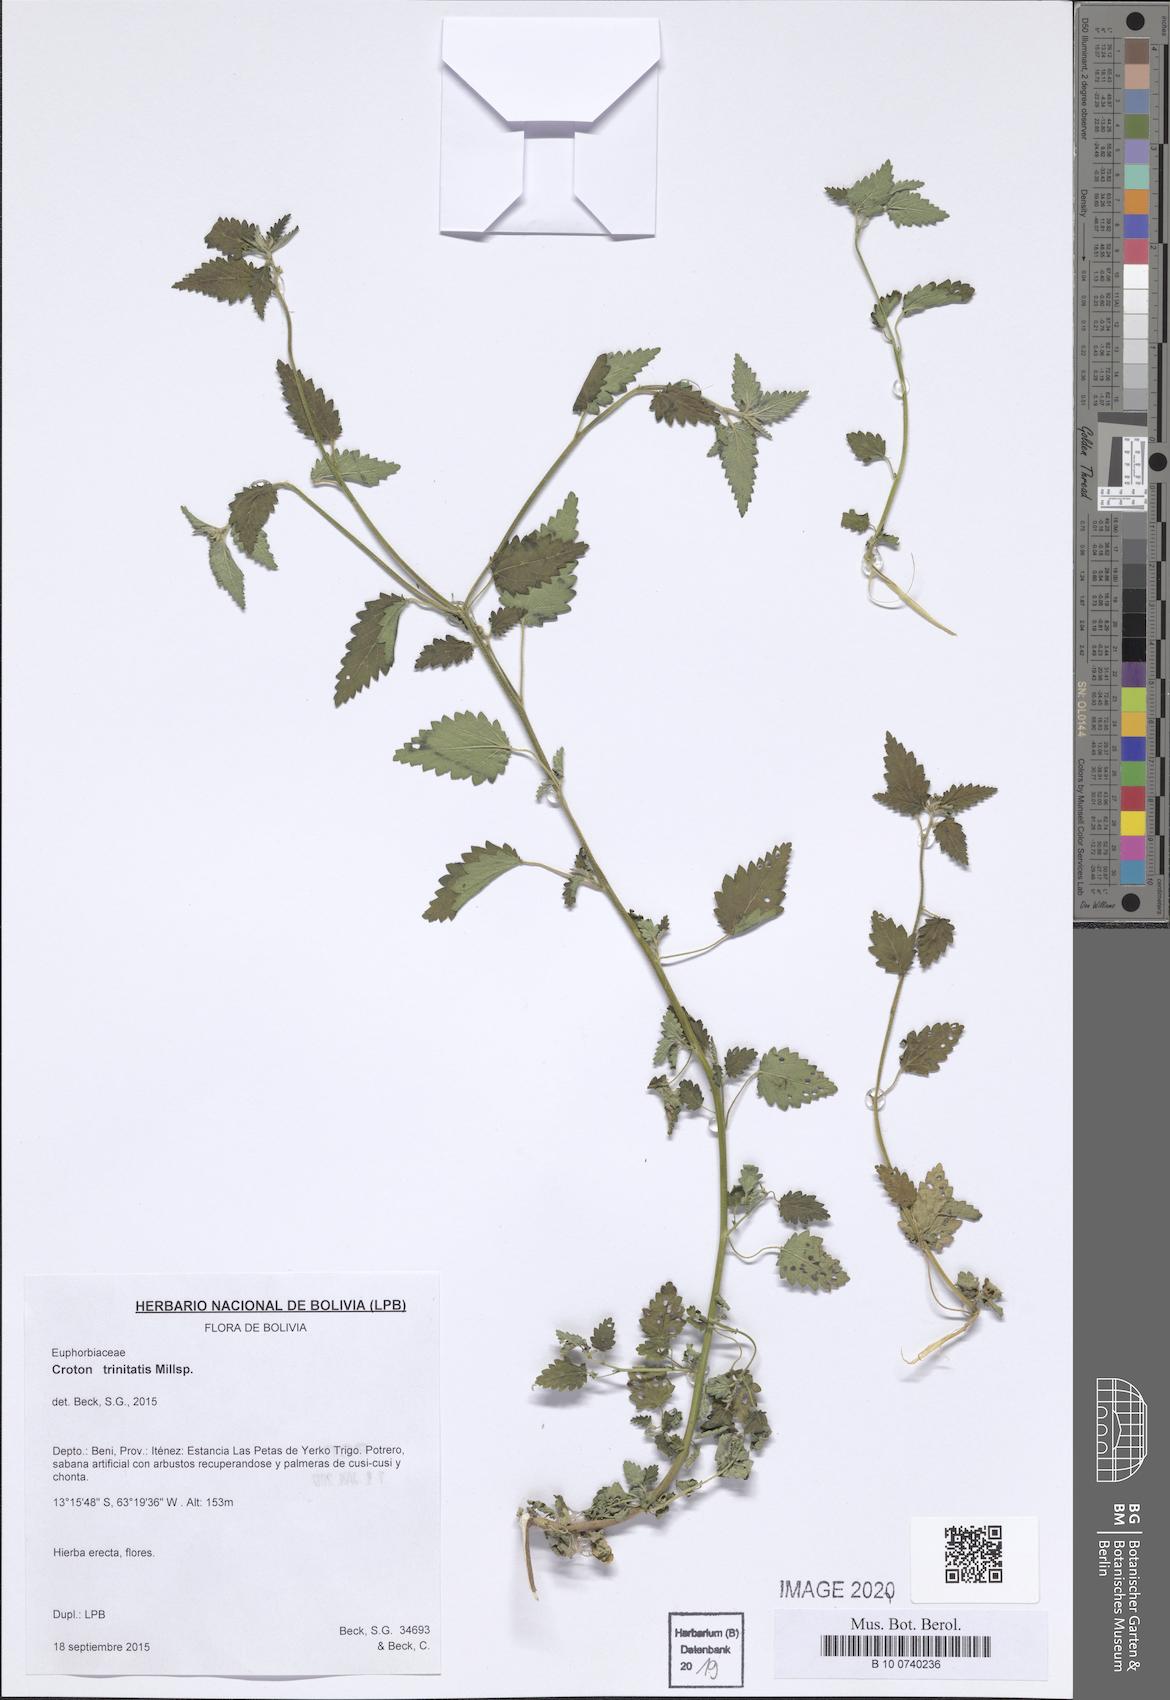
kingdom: Plantae
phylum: Tracheophyta
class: Magnoliopsida
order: Malpighiales
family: Euphorbiaceae
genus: Croton
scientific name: Croton trinitatis
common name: Roadside croton
